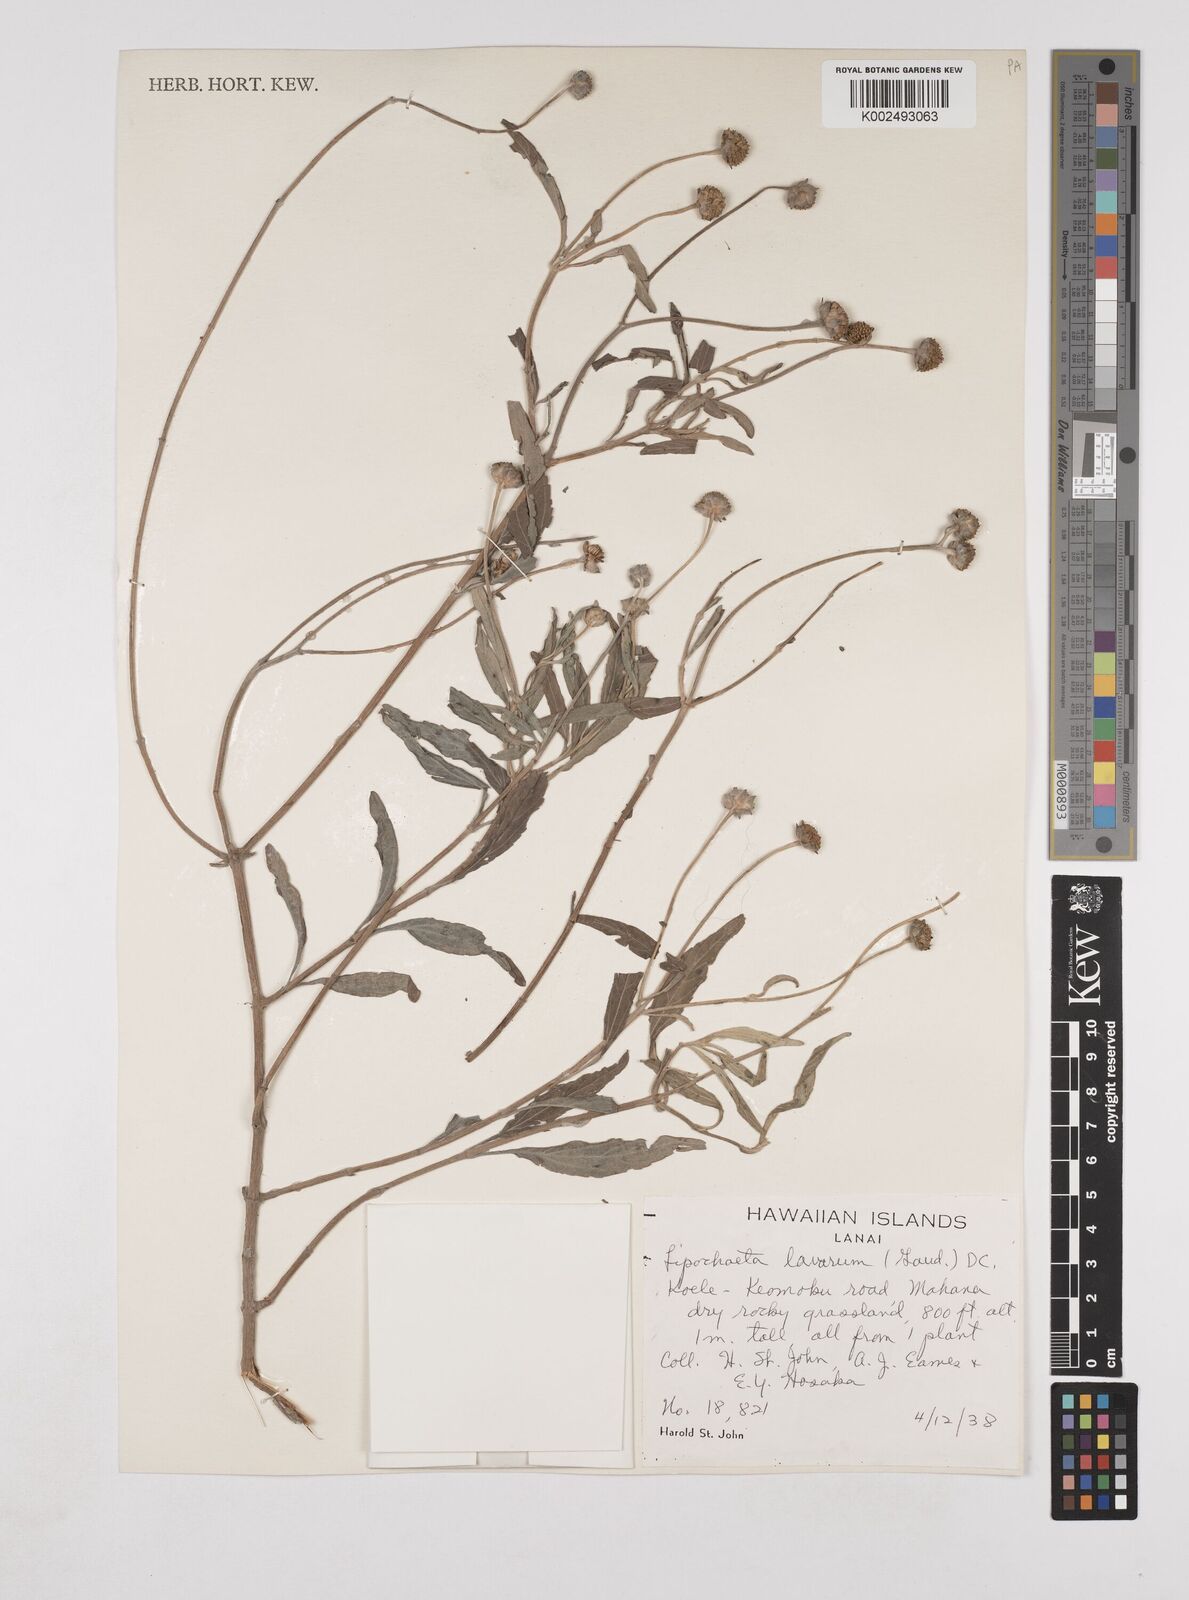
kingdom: Plantae
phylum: Tracheophyta
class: Magnoliopsida
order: Asterales
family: Asteraceae
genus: Lipochaeta
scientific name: Lipochaeta lavarum
